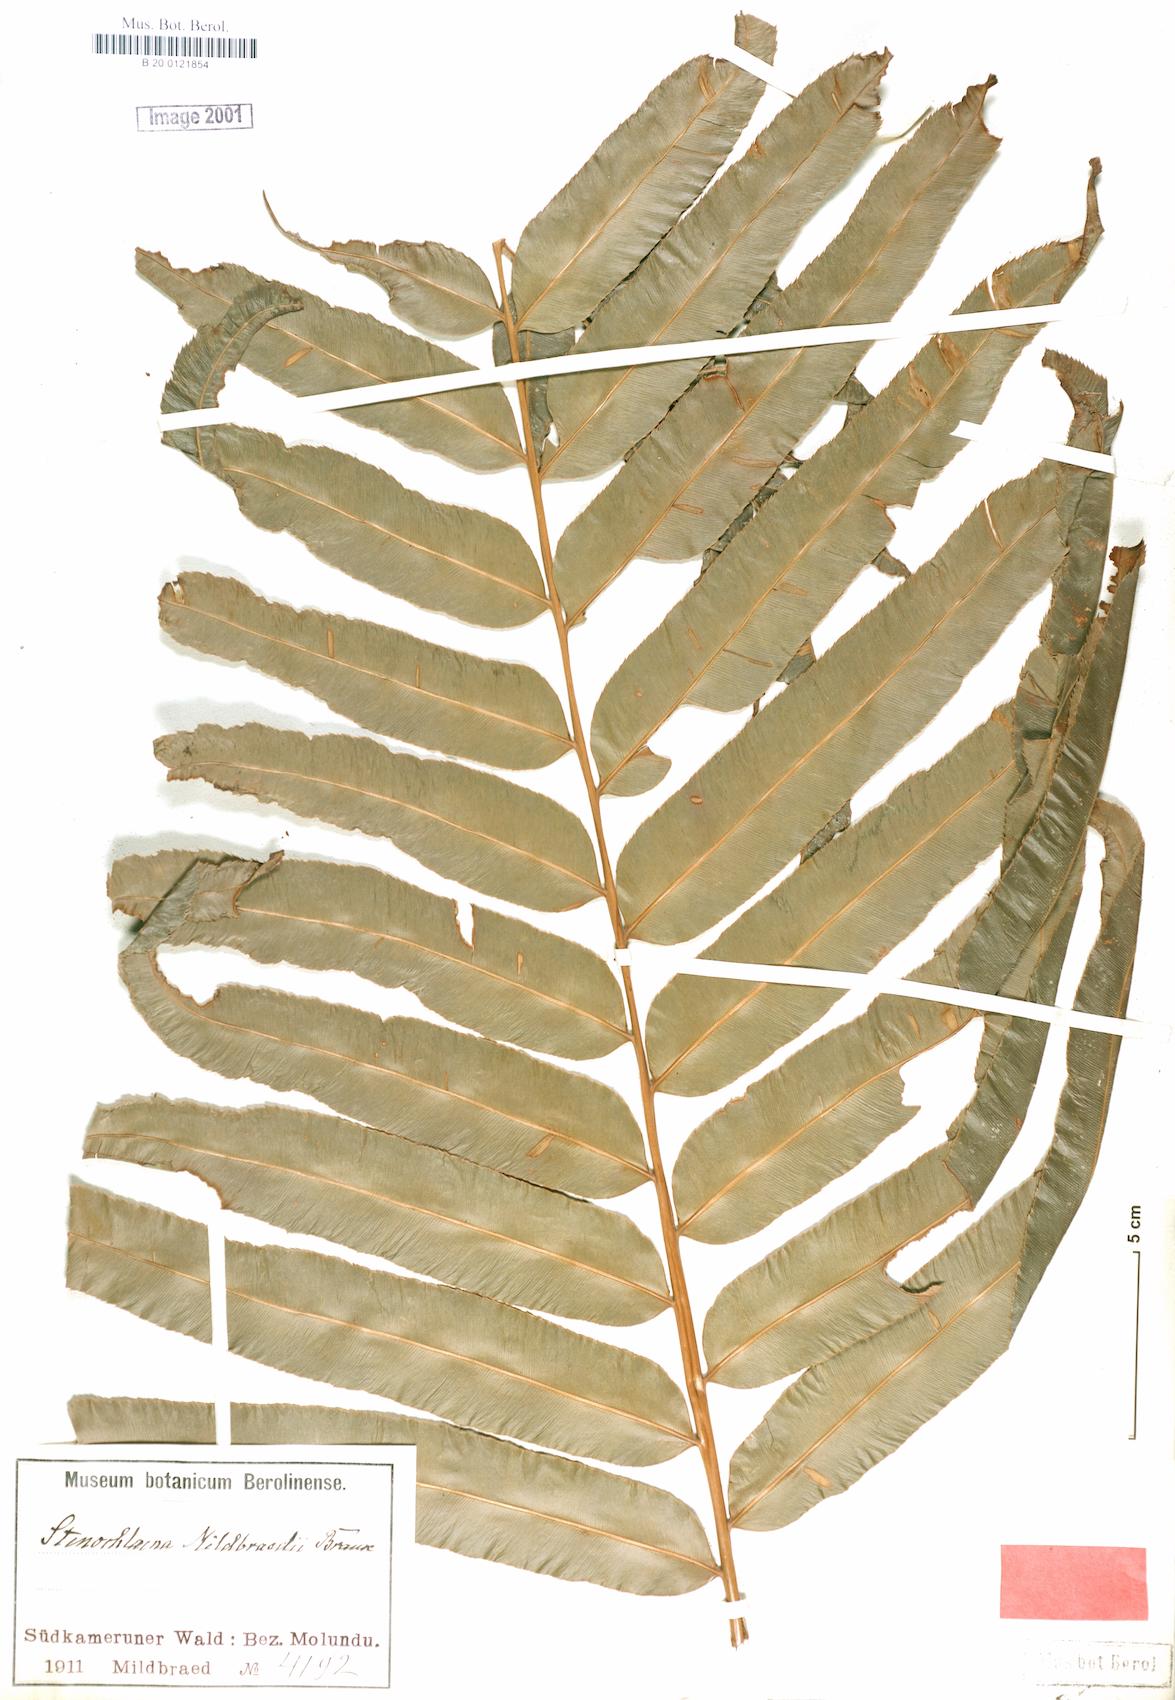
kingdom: Plantae
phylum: Tracheophyta
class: Polypodiopsida
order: Polypodiales
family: Blechnaceae
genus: Stenochlaena
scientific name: Stenochlaena tenuifolia
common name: Giant vine fern
